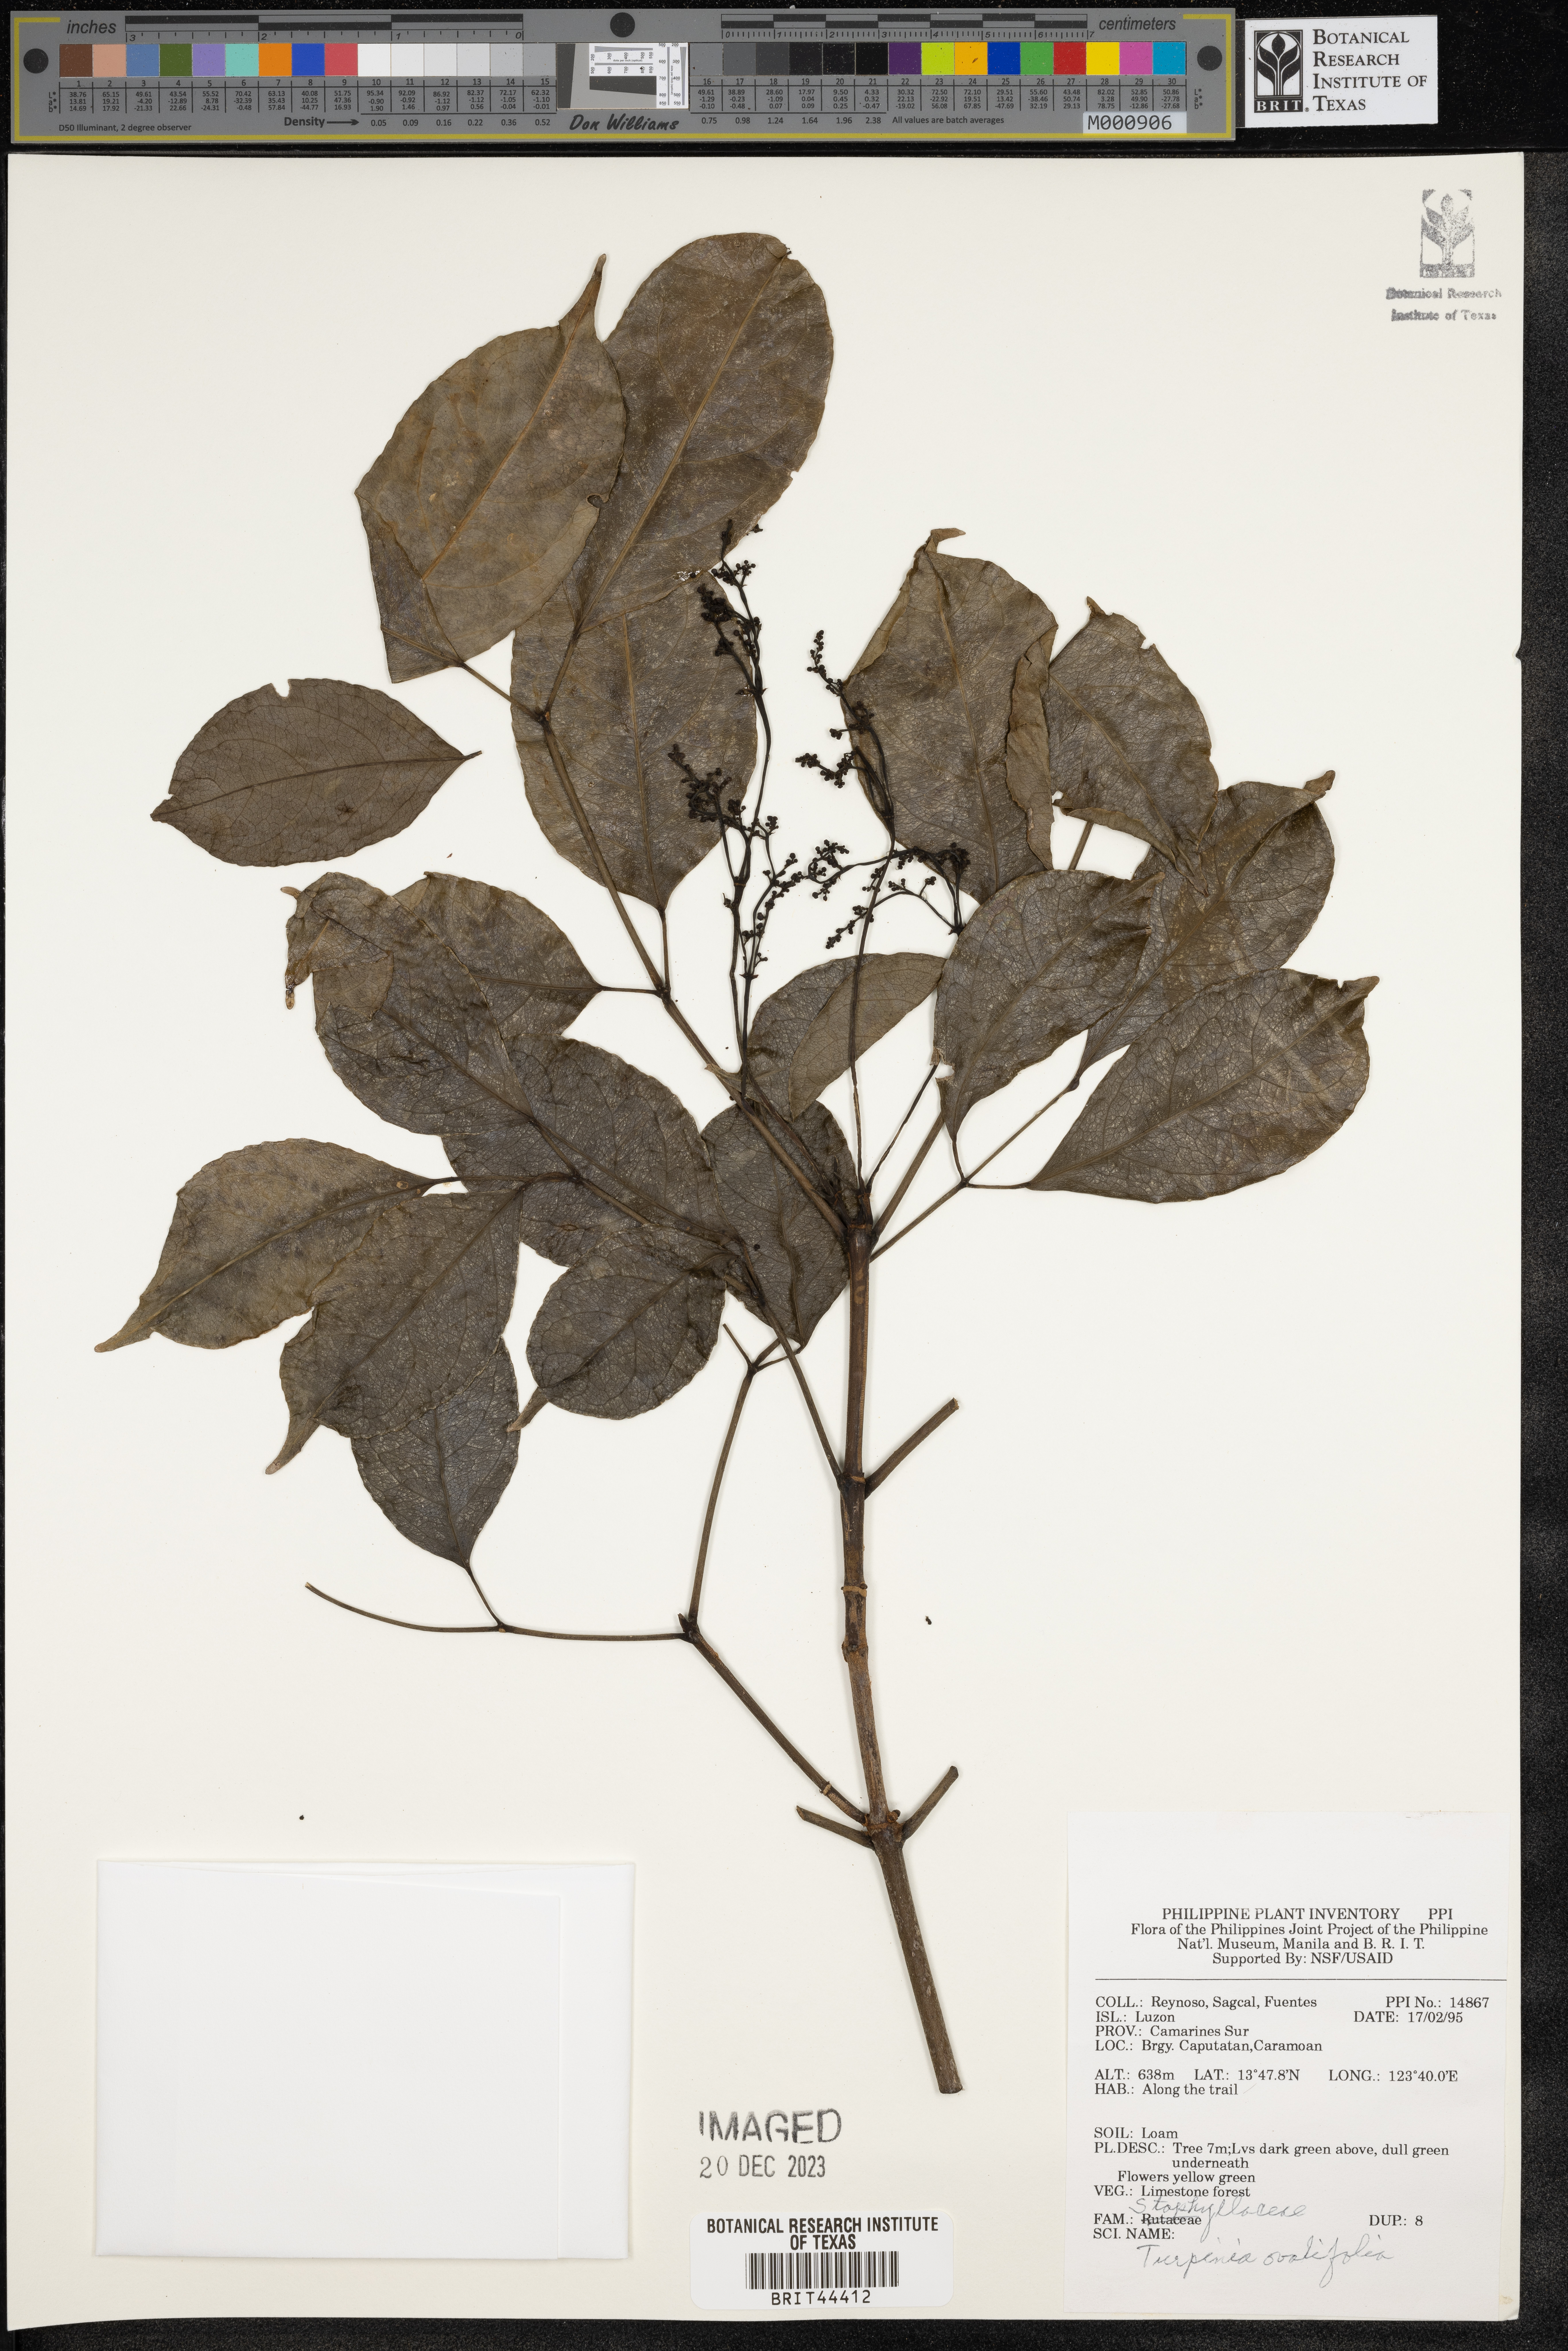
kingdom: Plantae
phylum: Tracheophyta
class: Magnoliopsida
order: Crossosomatales
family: Staphyleaceae
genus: Dalrympelea
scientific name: Dalrympelea trifoliata
